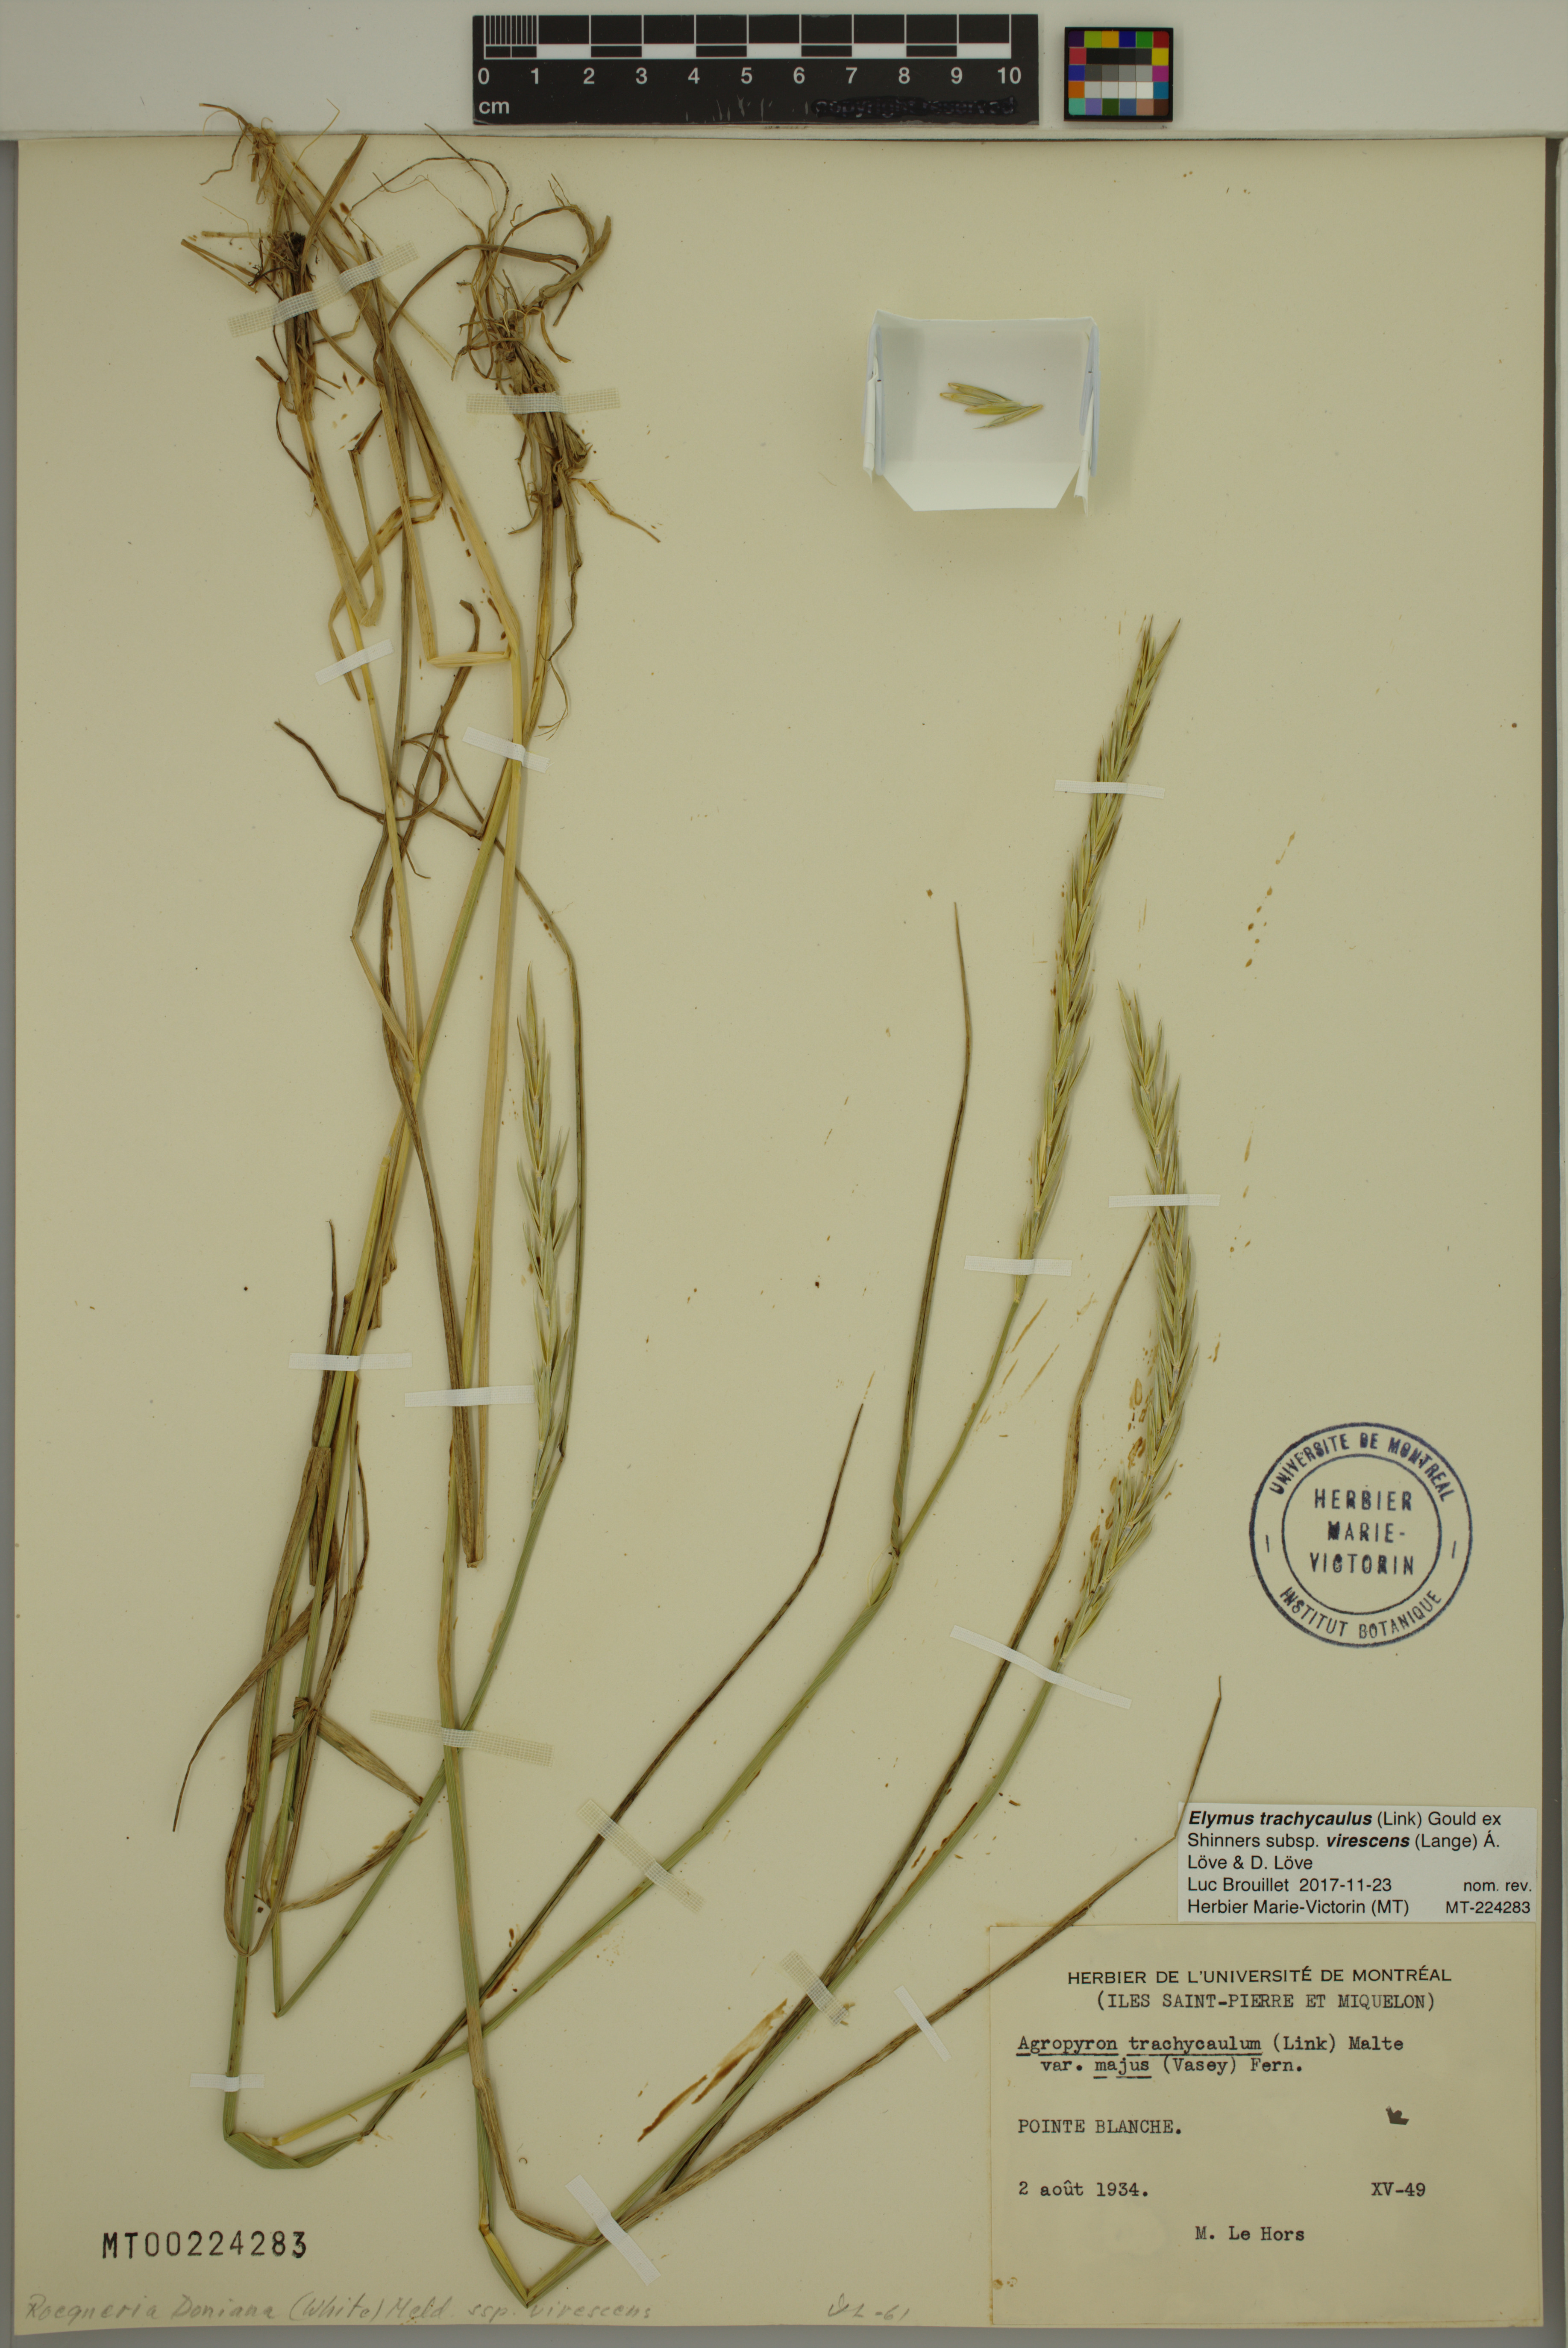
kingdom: Plantae
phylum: Tracheophyta
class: Liliopsida
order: Poales
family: Poaceae
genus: Elymus
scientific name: Elymus violaceus
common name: Arctic wheatgrass
